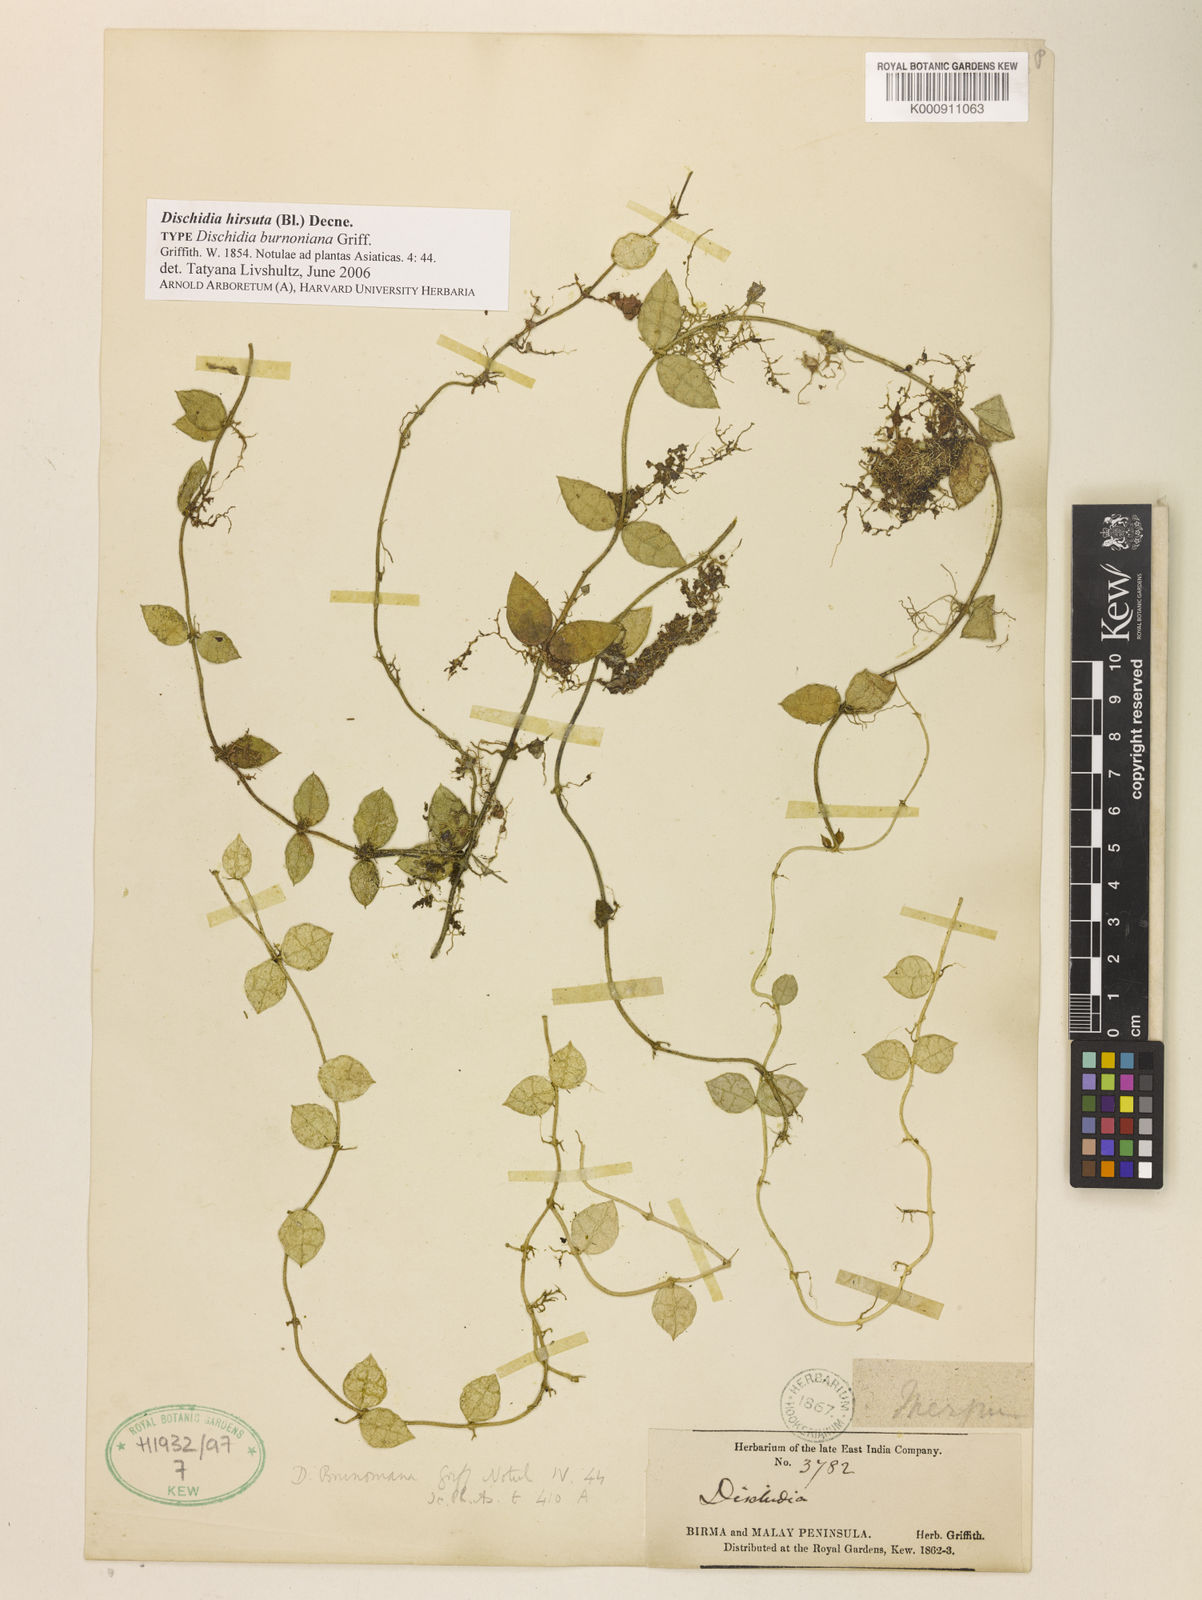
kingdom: Plantae
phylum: Tracheophyta
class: Magnoliopsida
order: Gentianales
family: Apocynaceae
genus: Dischidia
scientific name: Dischidia hirsuta
